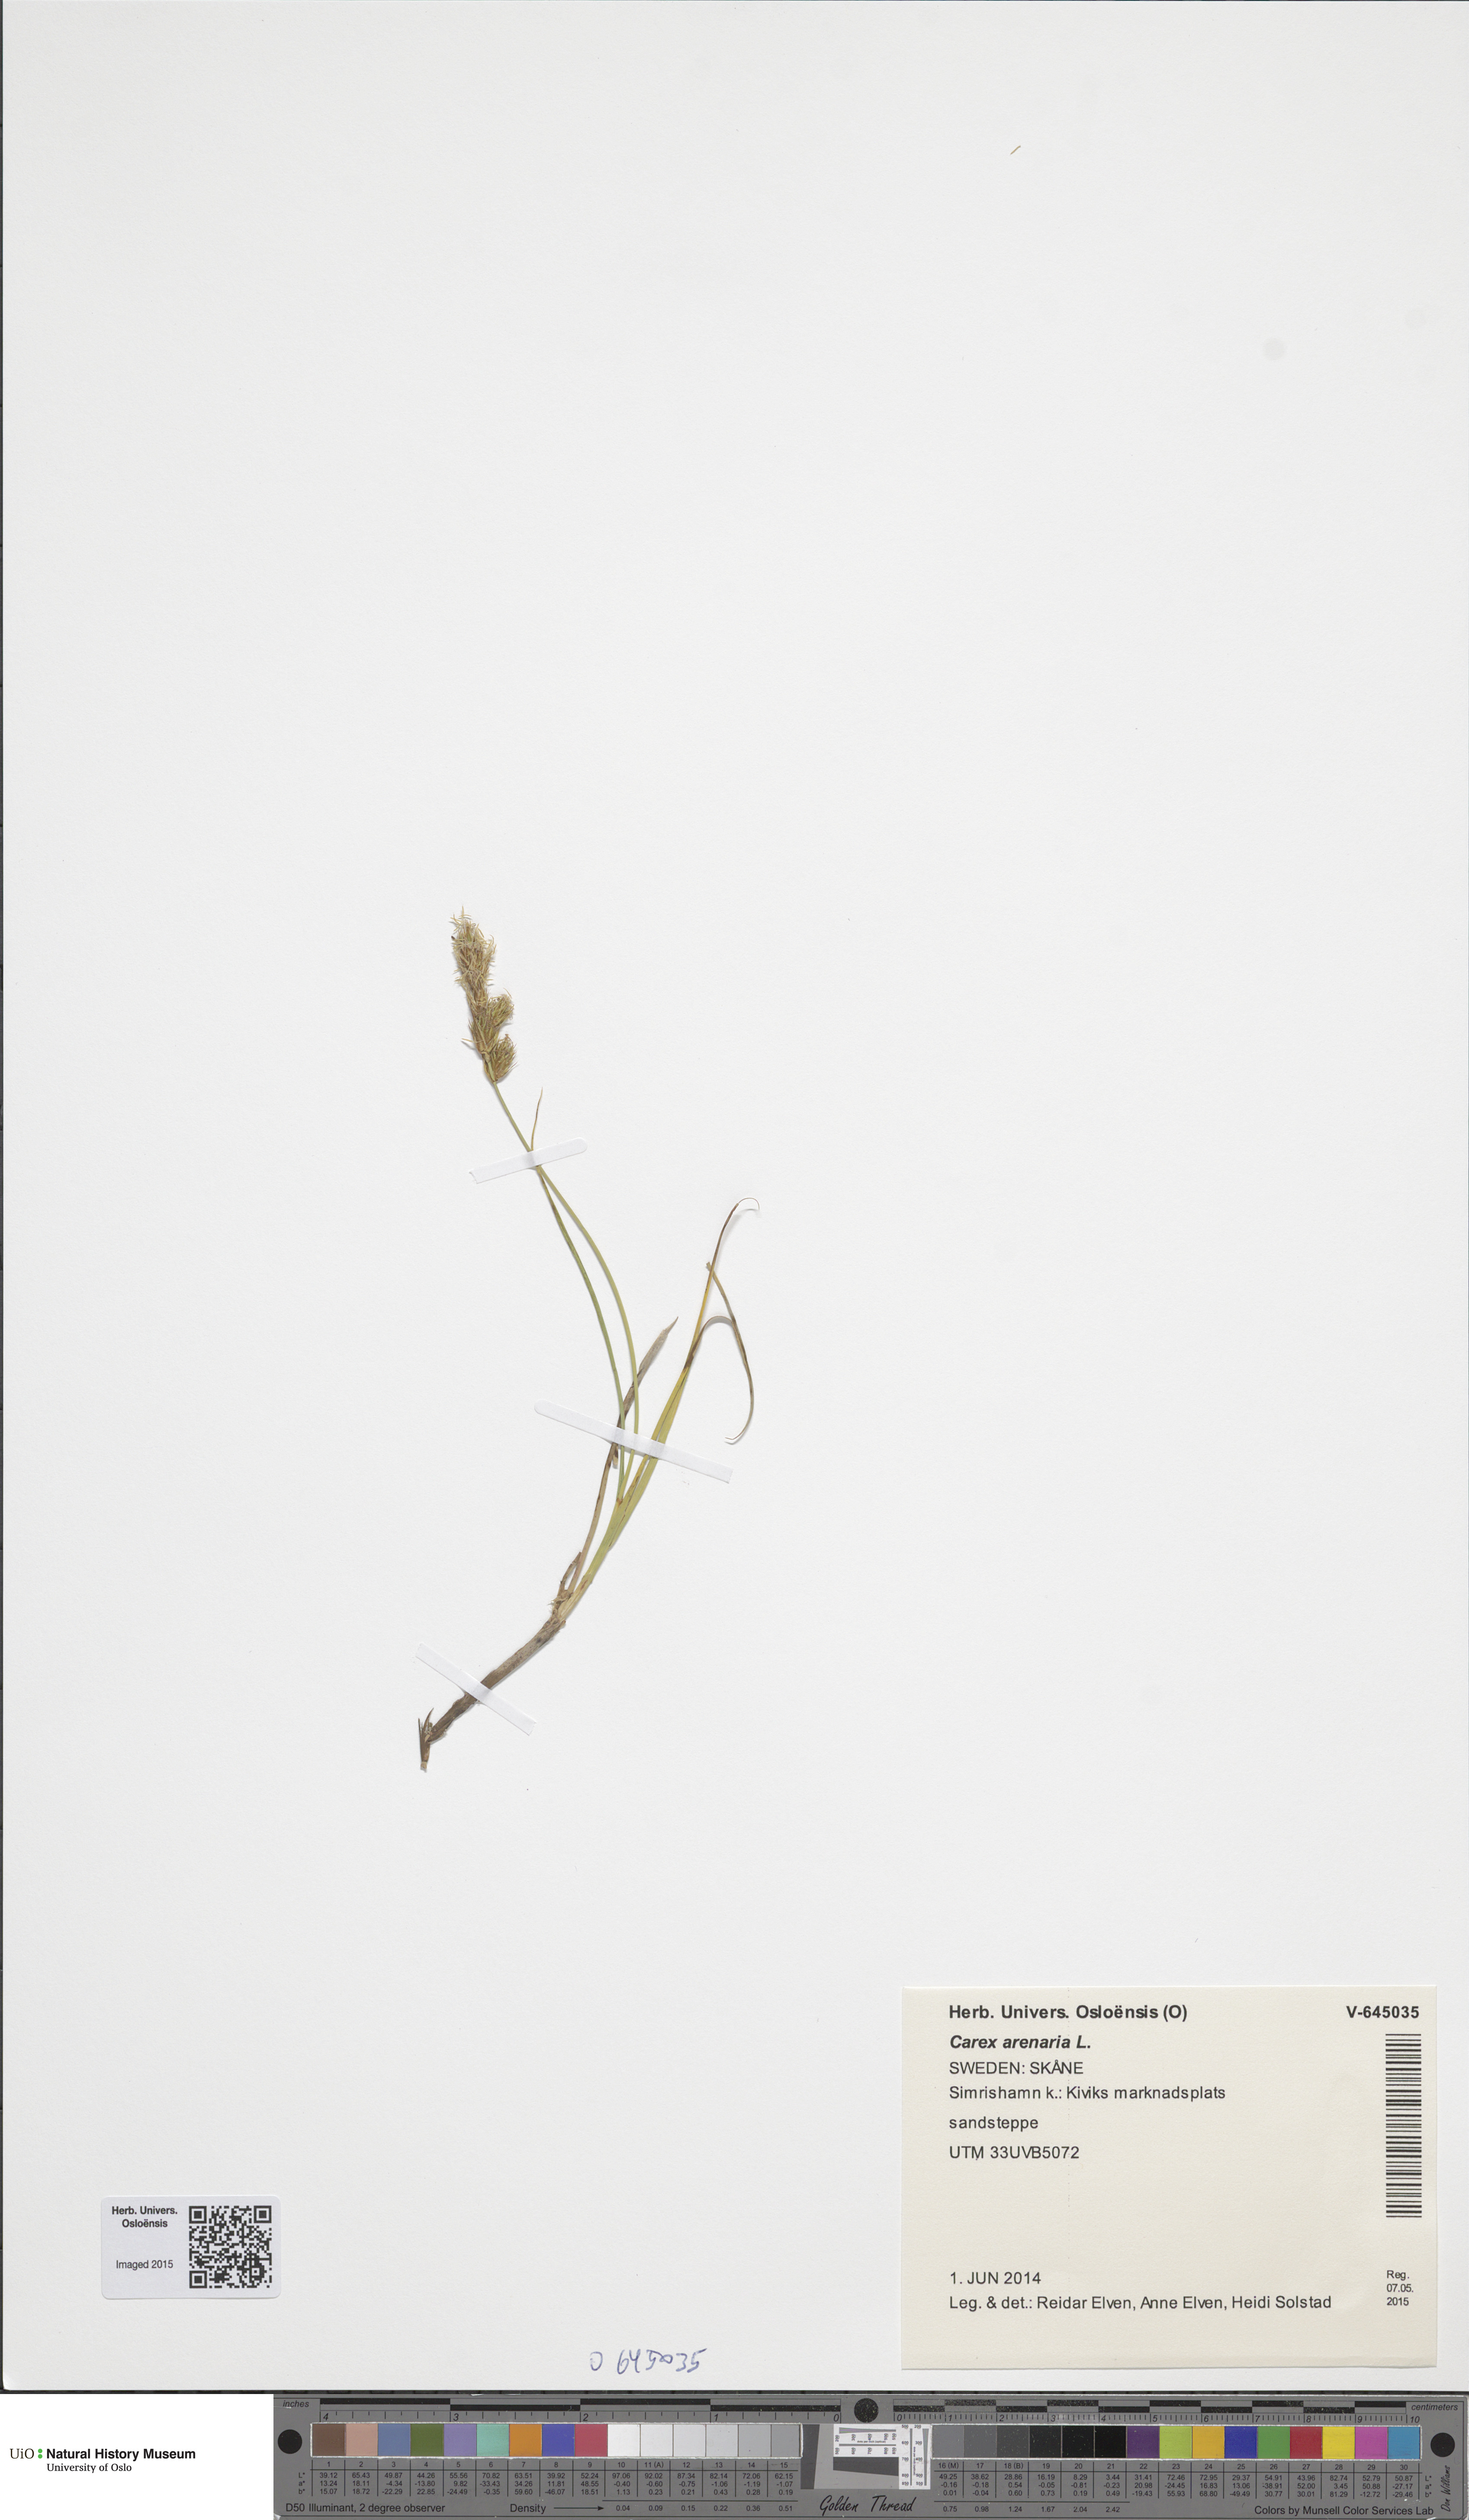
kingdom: Plantae
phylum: Tracheophyta
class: Liliopsida
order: Poales
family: Cyperaceae
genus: Carex
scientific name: Carex arenaria
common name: Sand sedge
